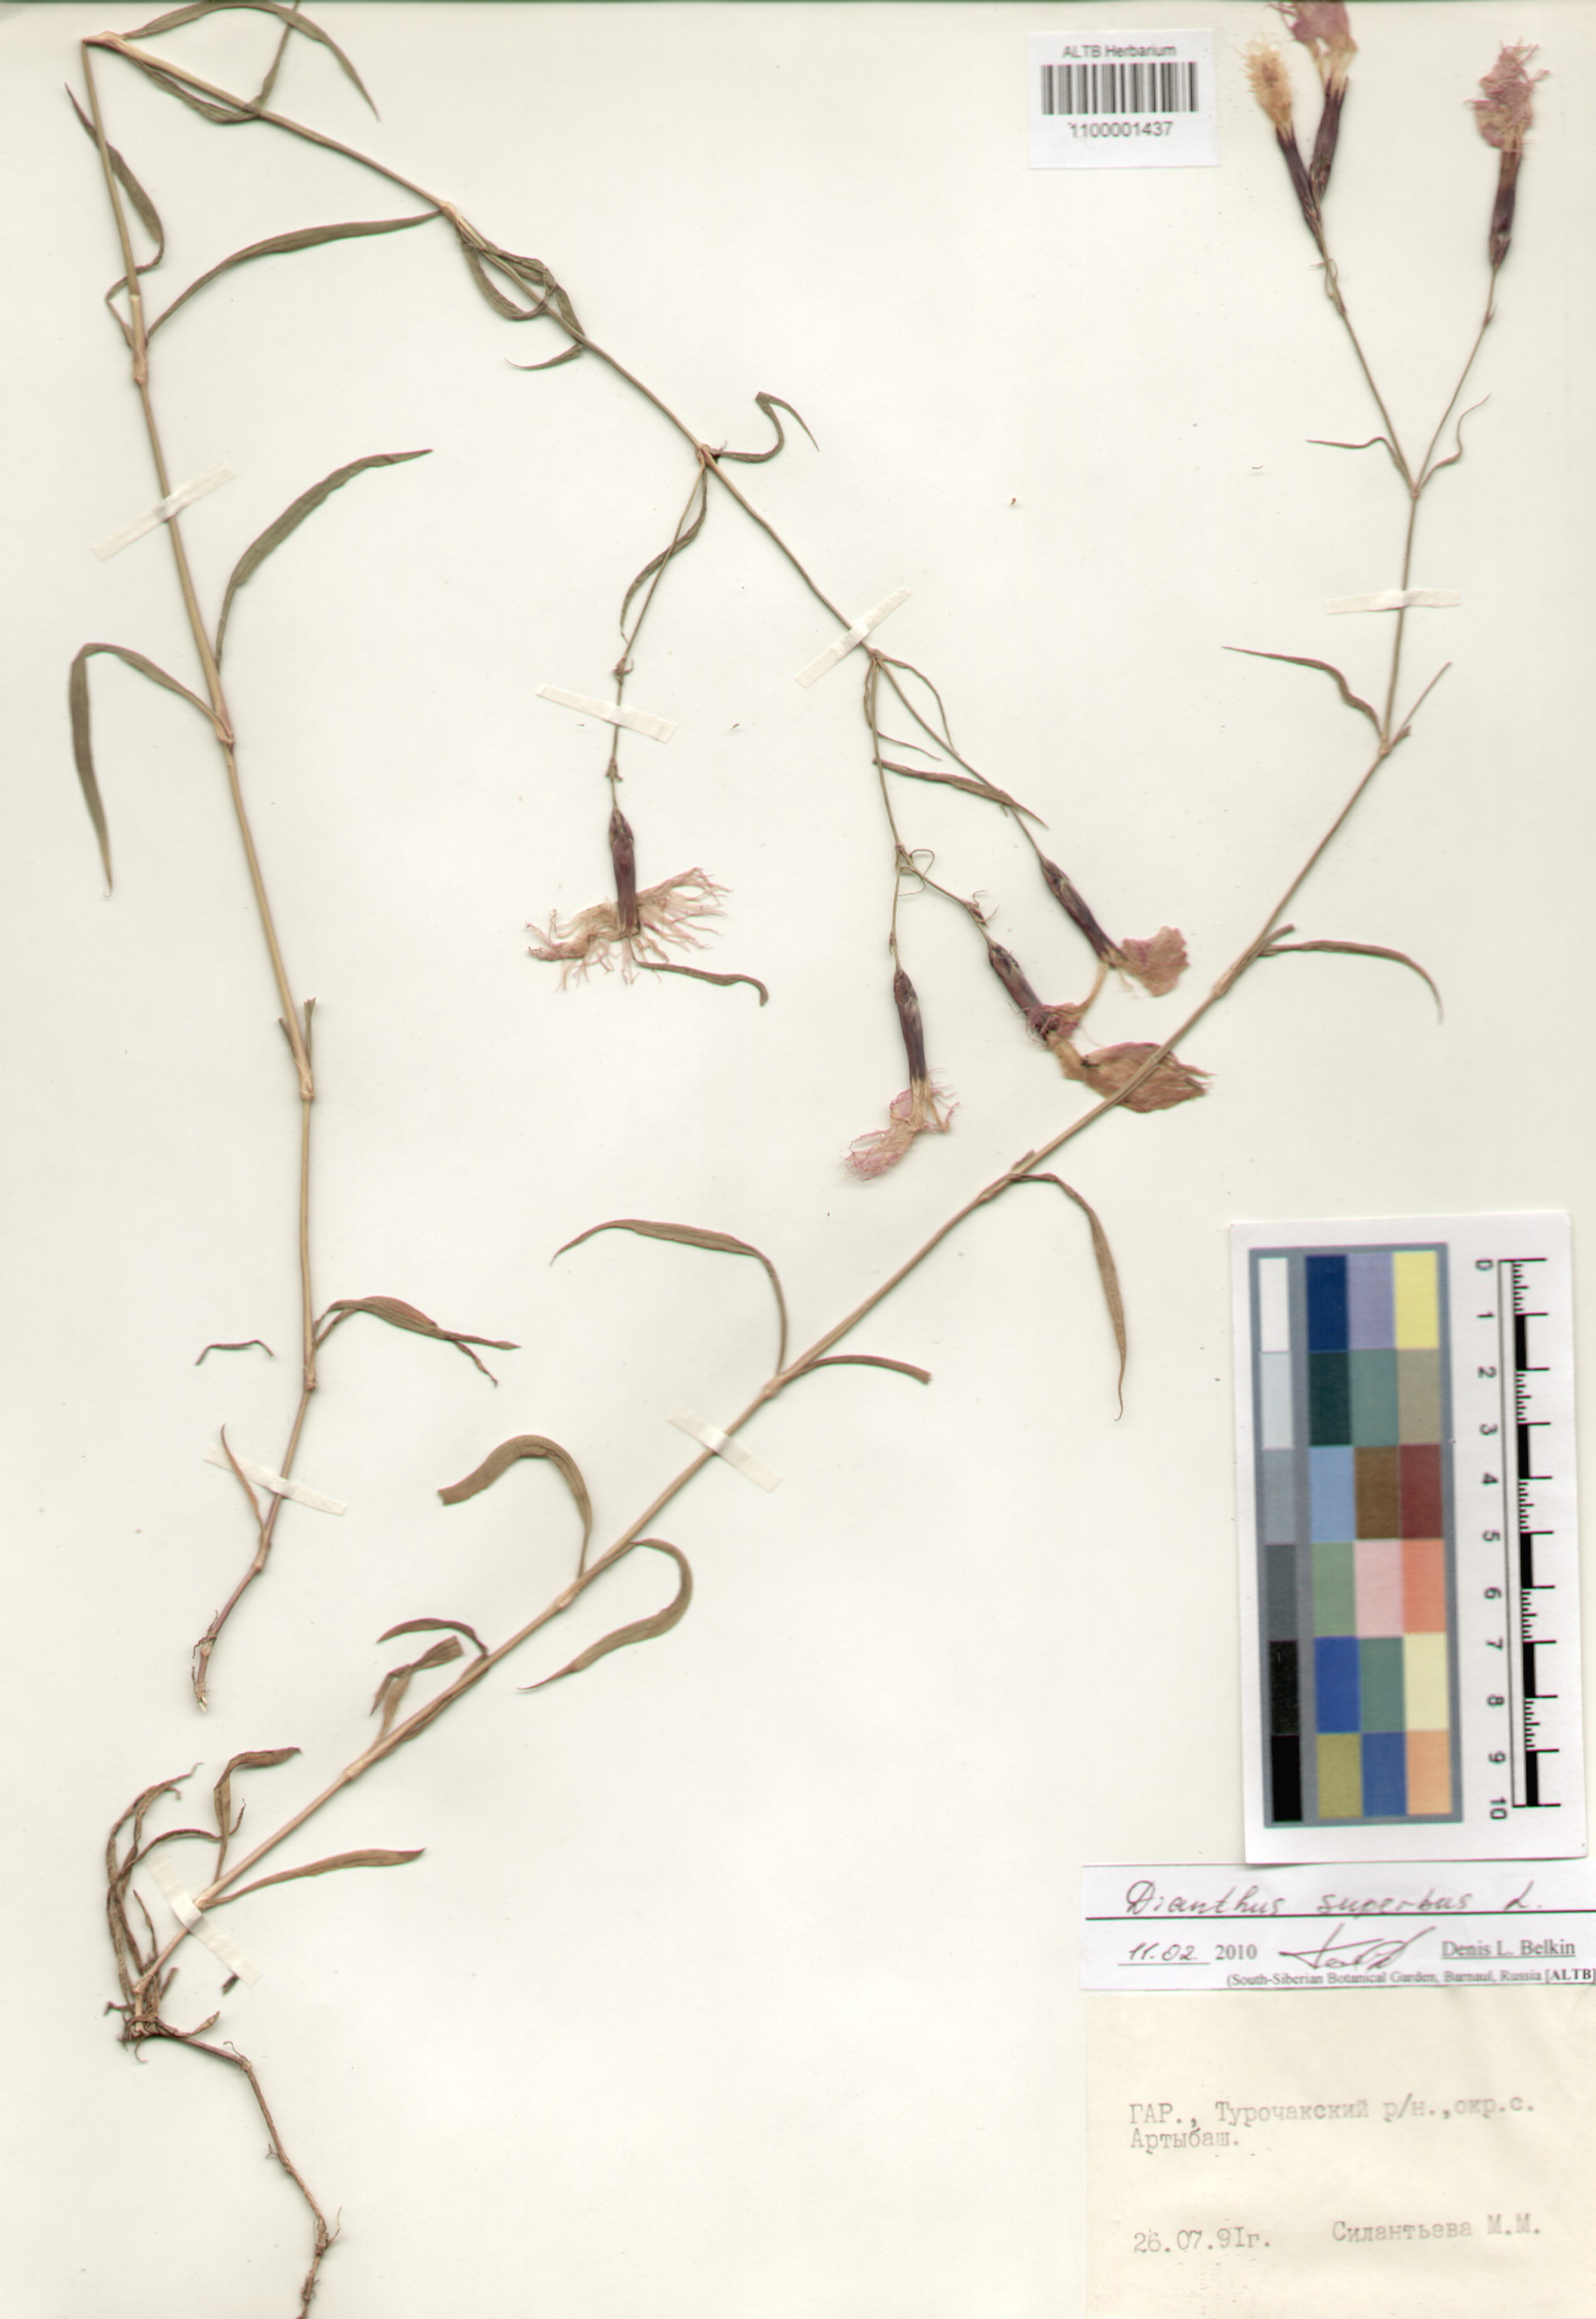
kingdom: Plantae
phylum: Tracheophyta
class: Magnoliopsida
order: Caryophyllales
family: Caryophyllaceae
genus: Dianthus
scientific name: Dianthus superbus
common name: Fringed pink
